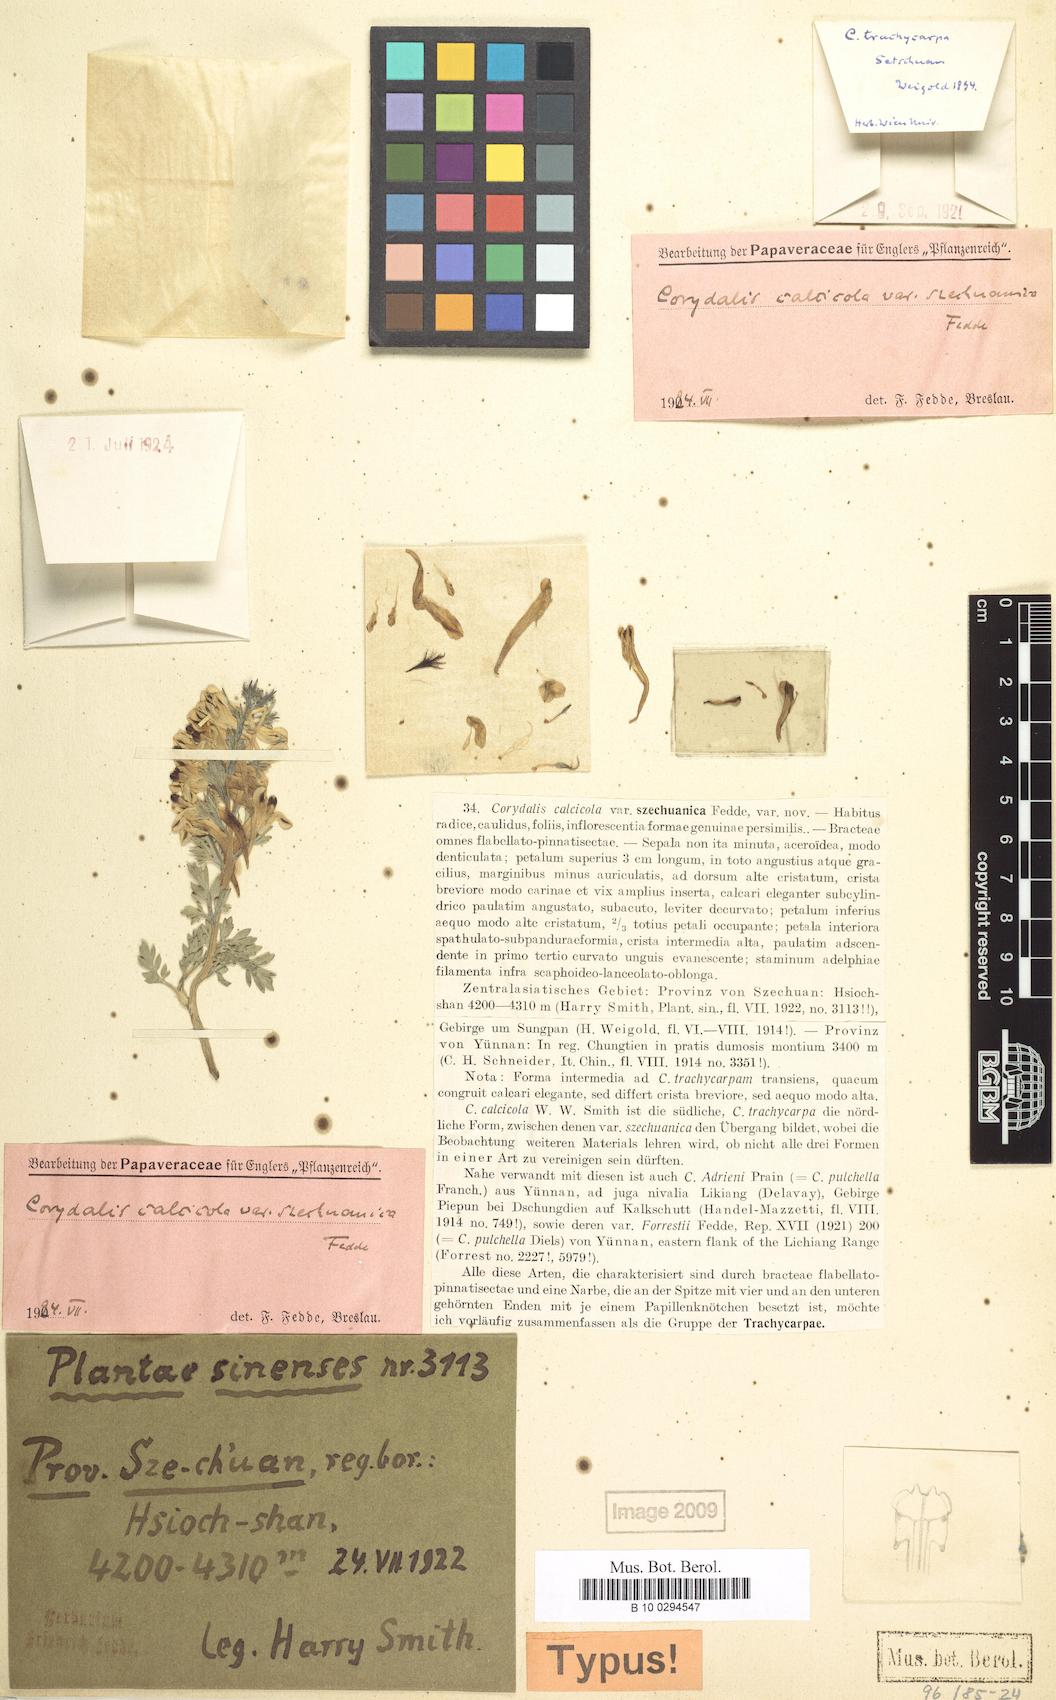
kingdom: Plantae
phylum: Tracheophyta
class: Magnoliopsida
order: Ranunculales
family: Papaveraceae
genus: Corydalis
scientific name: Corydalis trachycarpa
